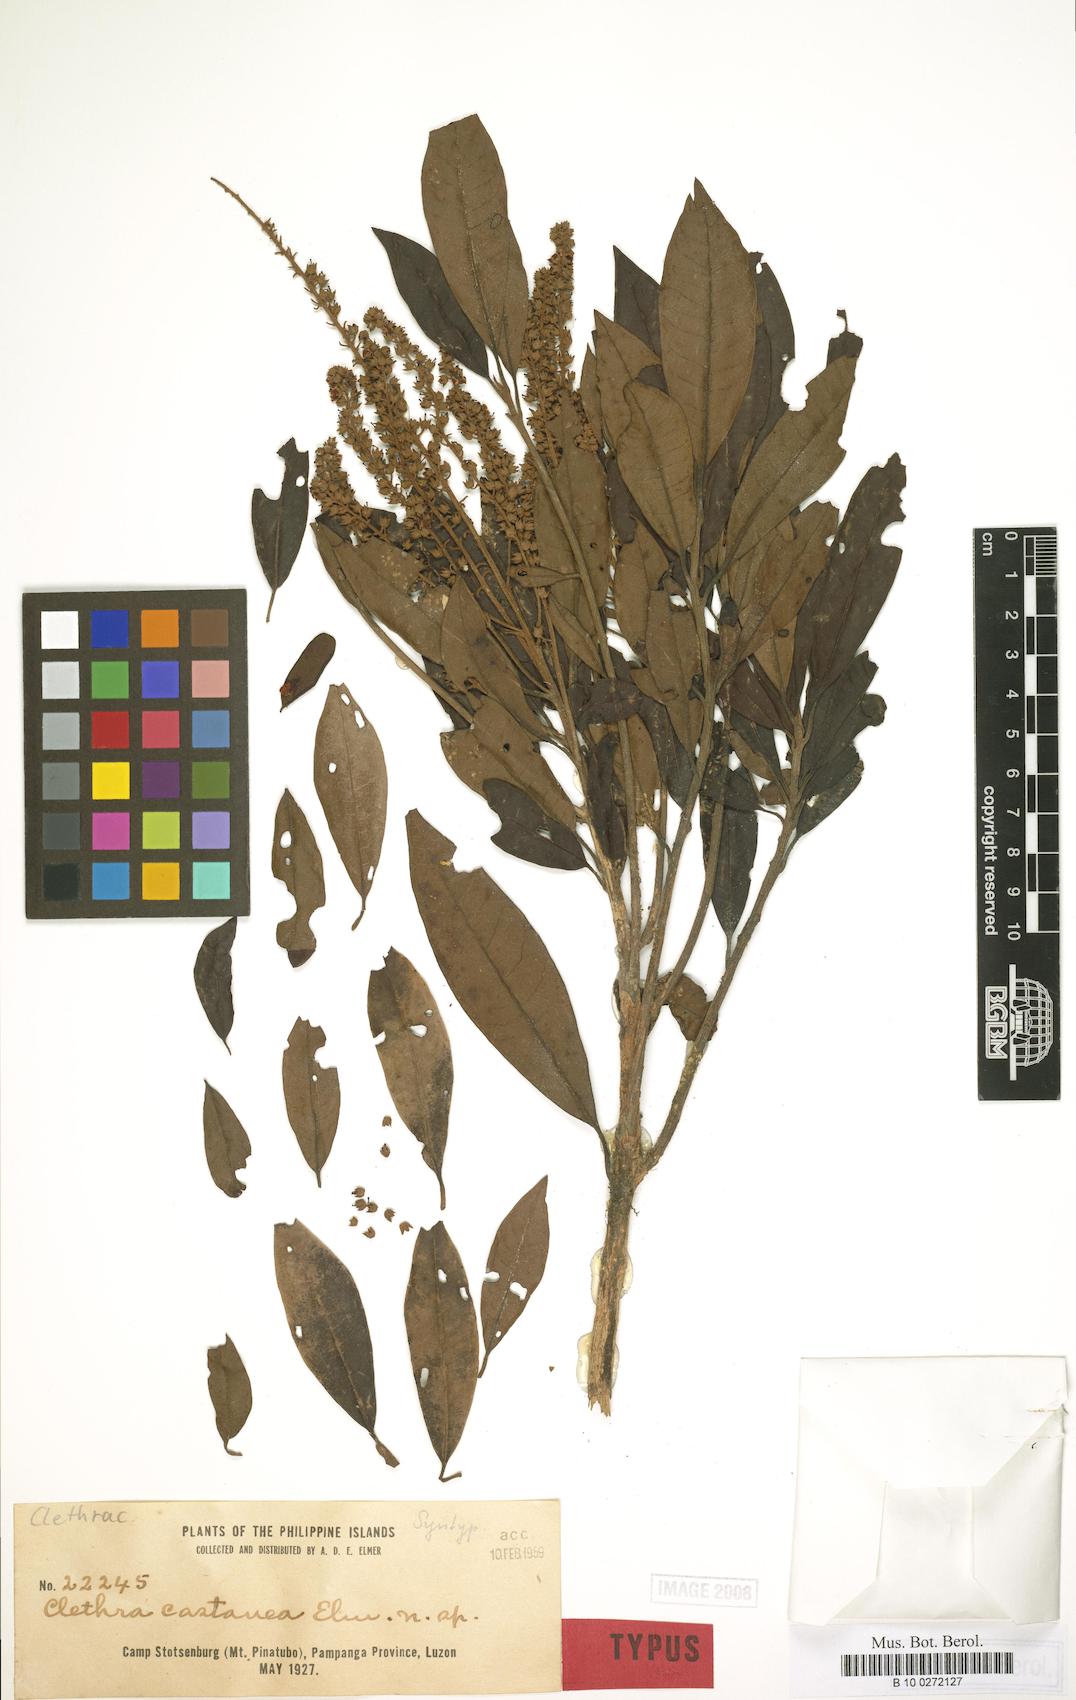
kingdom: Plantae
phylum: Tracheophyta
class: Magnoliopsida
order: Ericales
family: Clethraceae
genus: Clethra
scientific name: Clethra canescens
